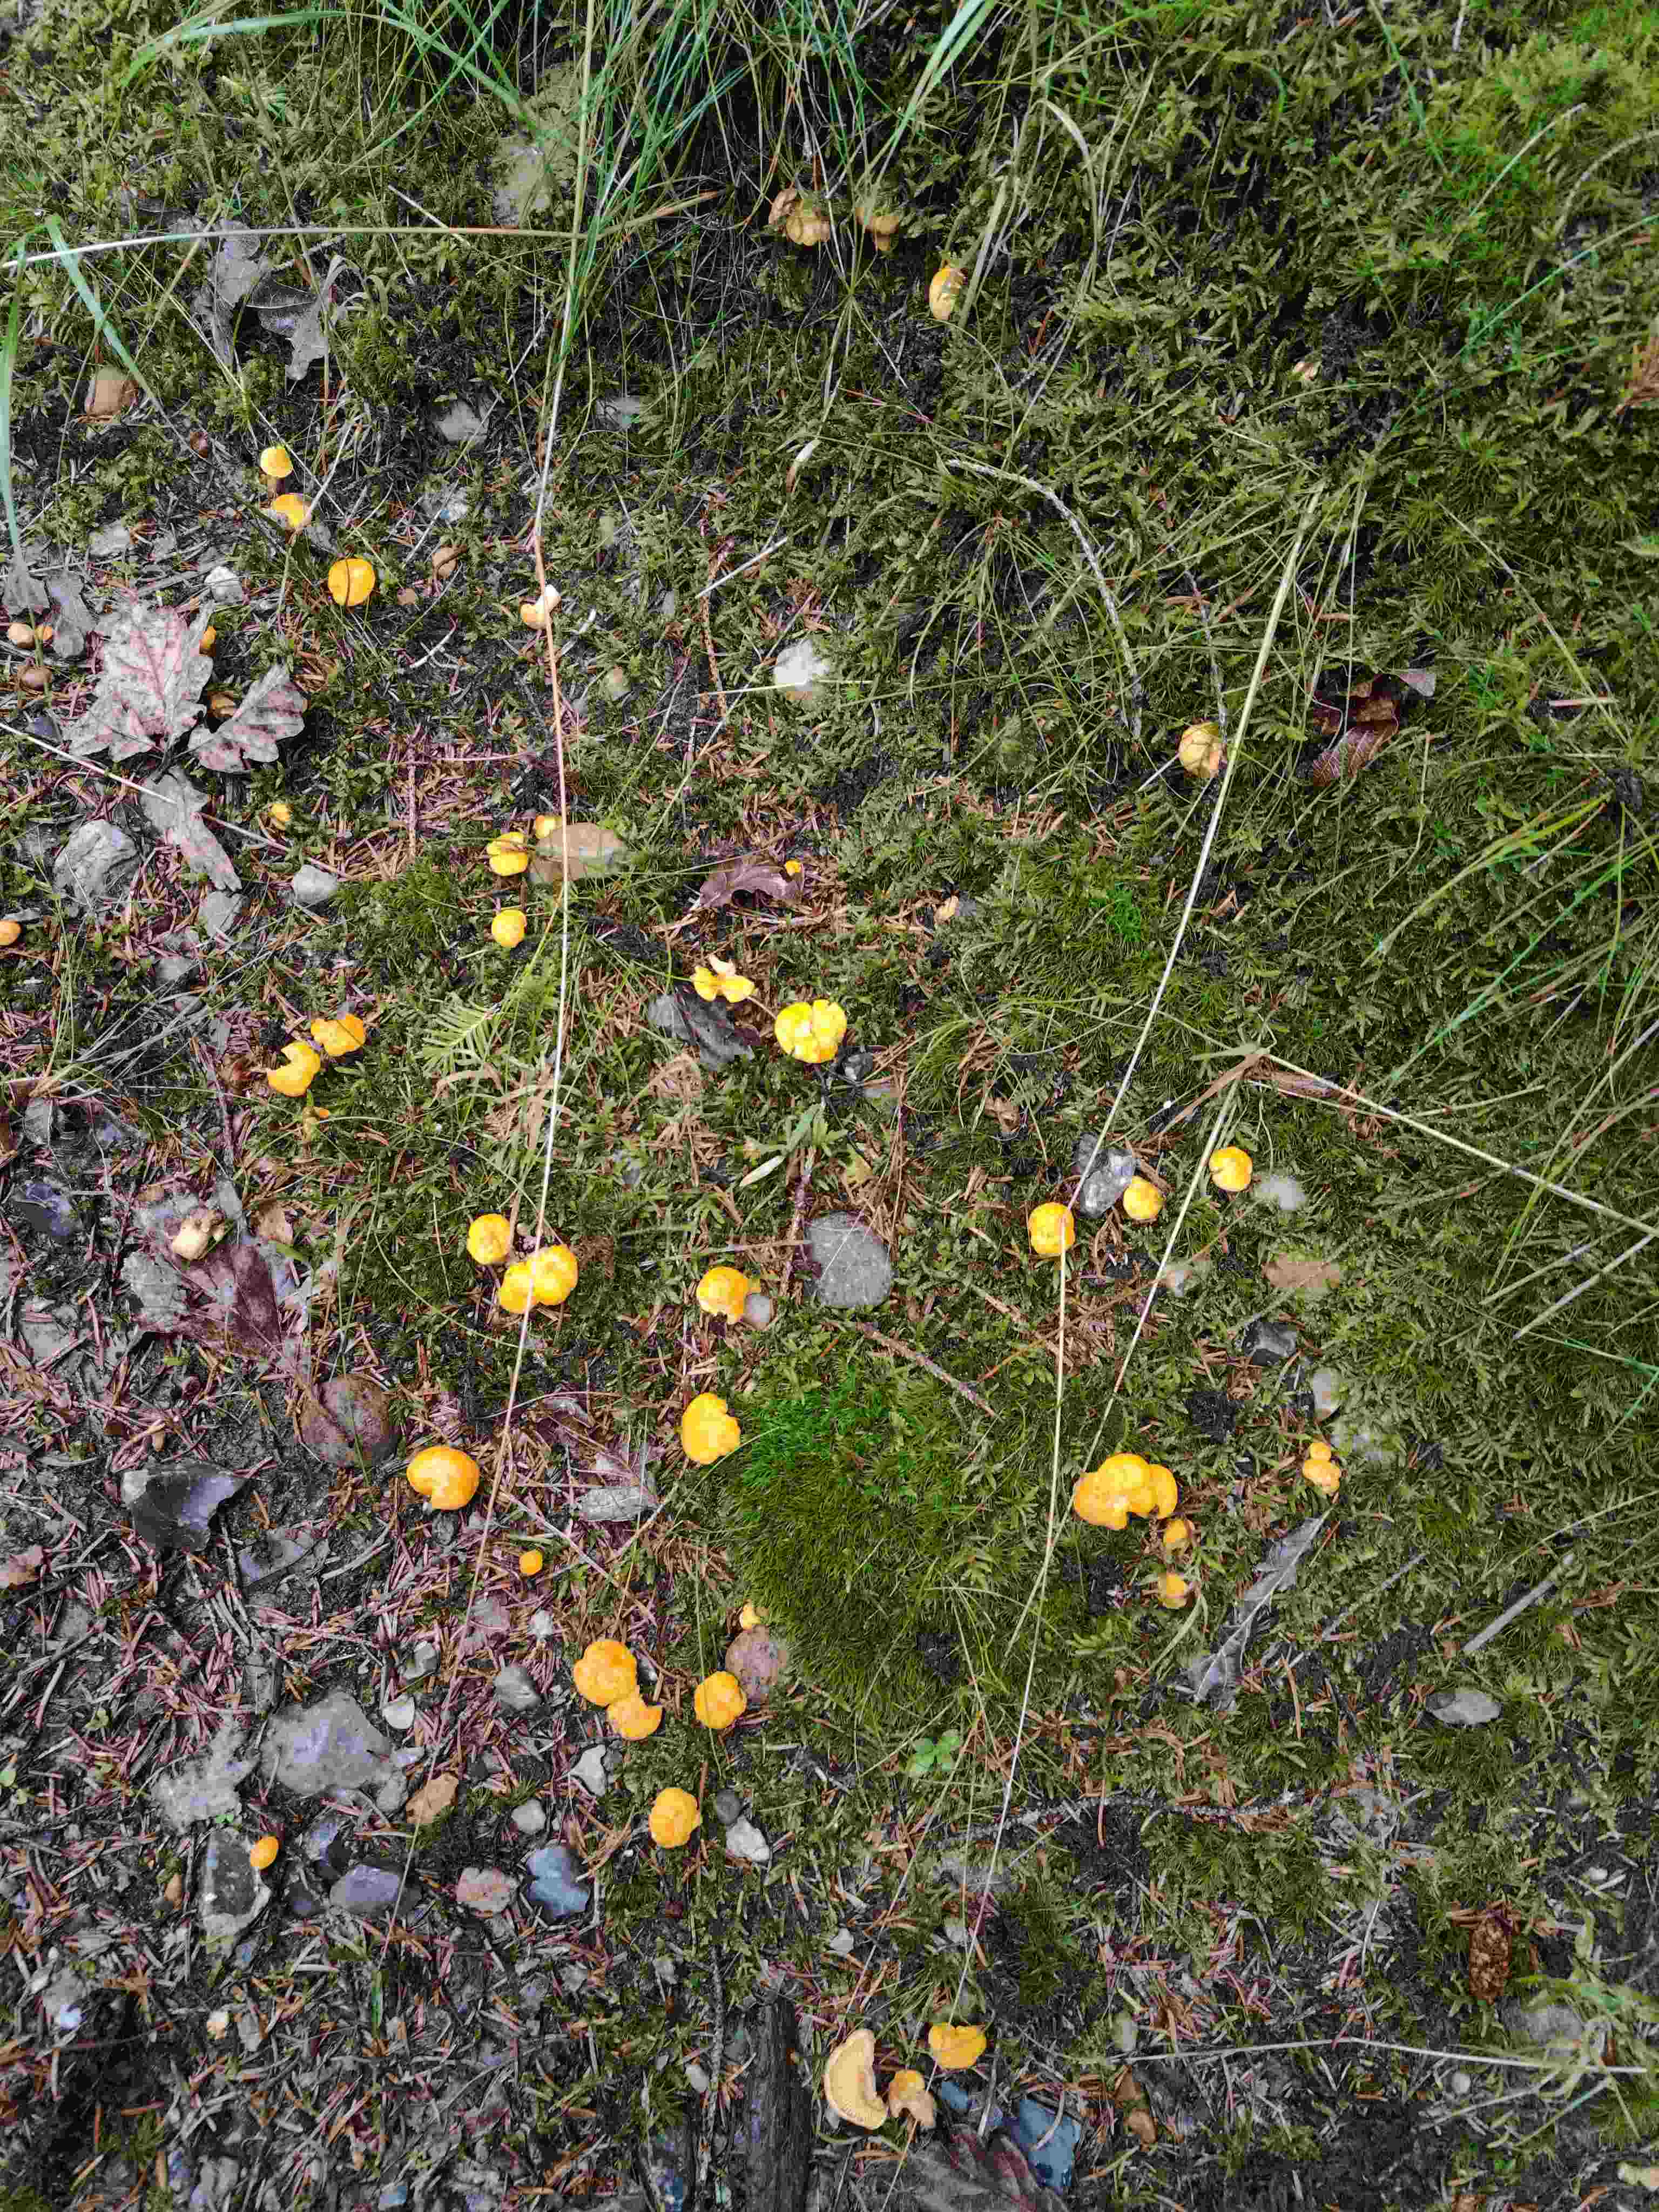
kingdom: Fungi
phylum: Basidiomycota
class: Agaricomycetes
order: Cantharellales
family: Hydnaceae
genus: Cantharellus
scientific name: Cantharellus cibarius
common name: almindelig kantarel
